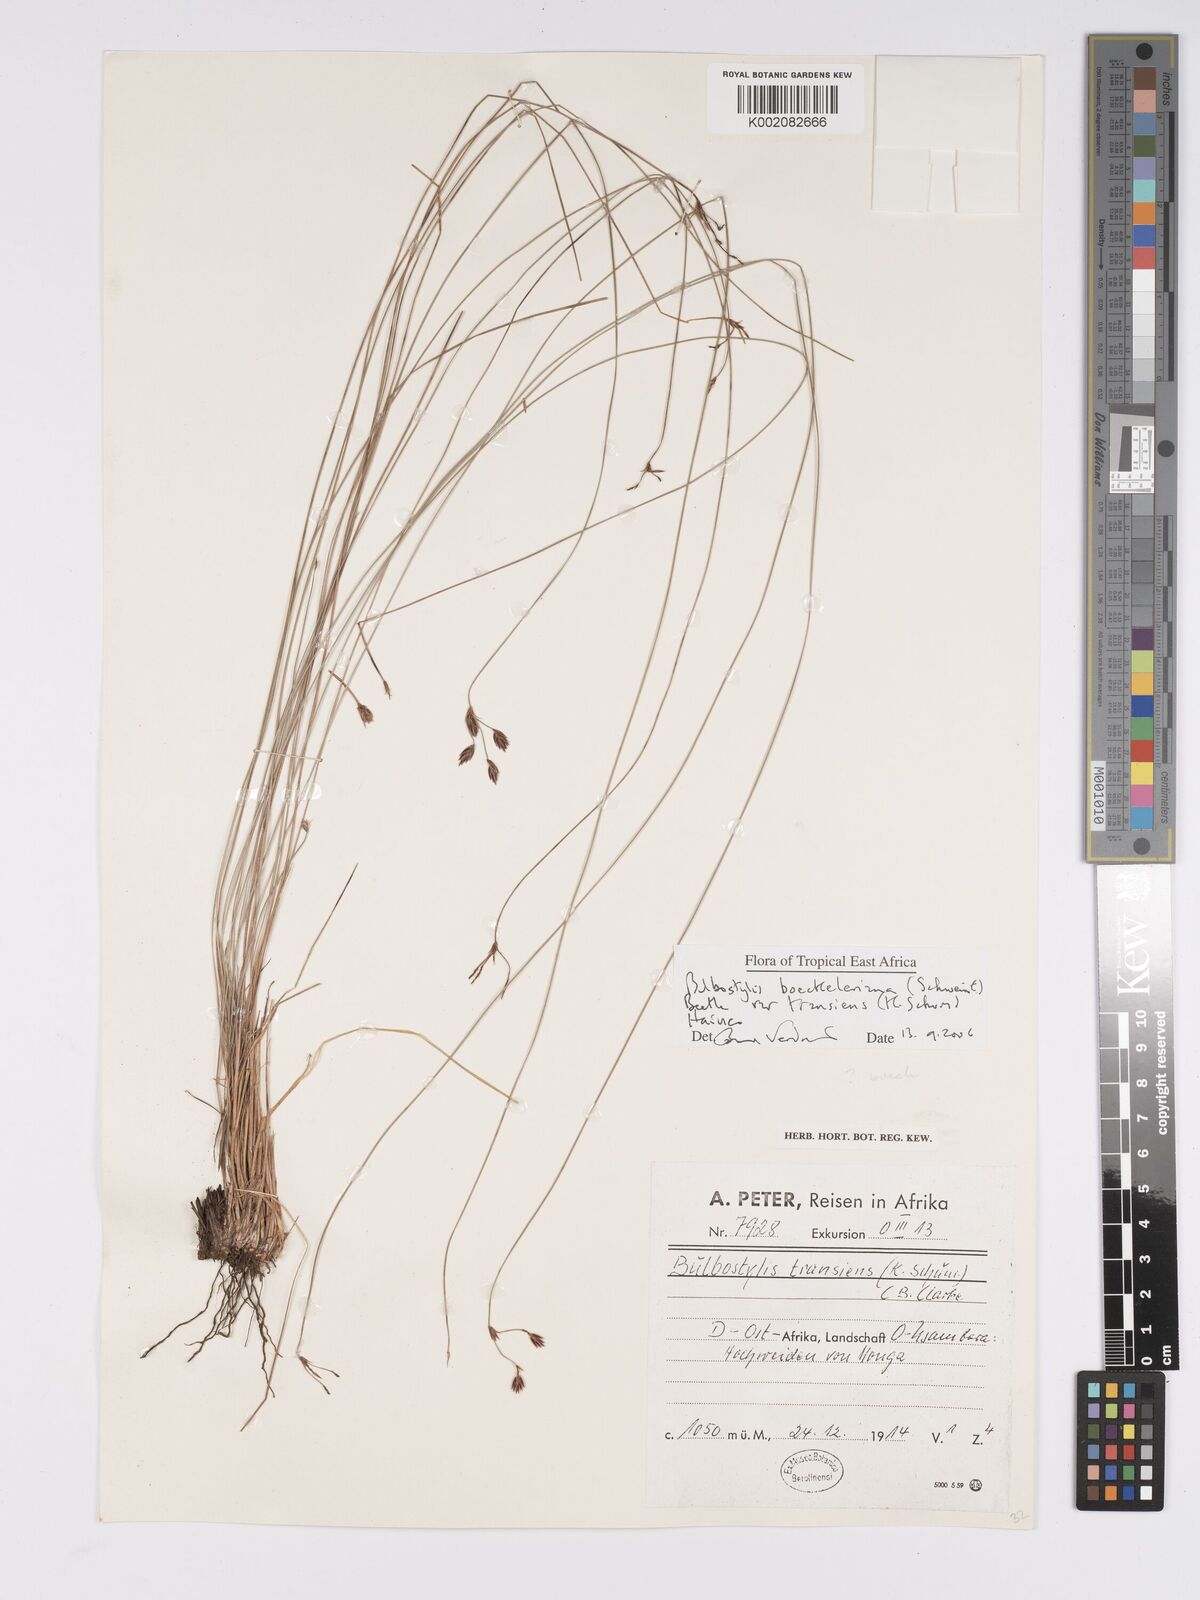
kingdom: Plantae
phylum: Tracheophyta
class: Liliopsida
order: Poales
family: Cyperaceae
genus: Bulbostylis
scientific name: Bulbostylis boeckeleriana
